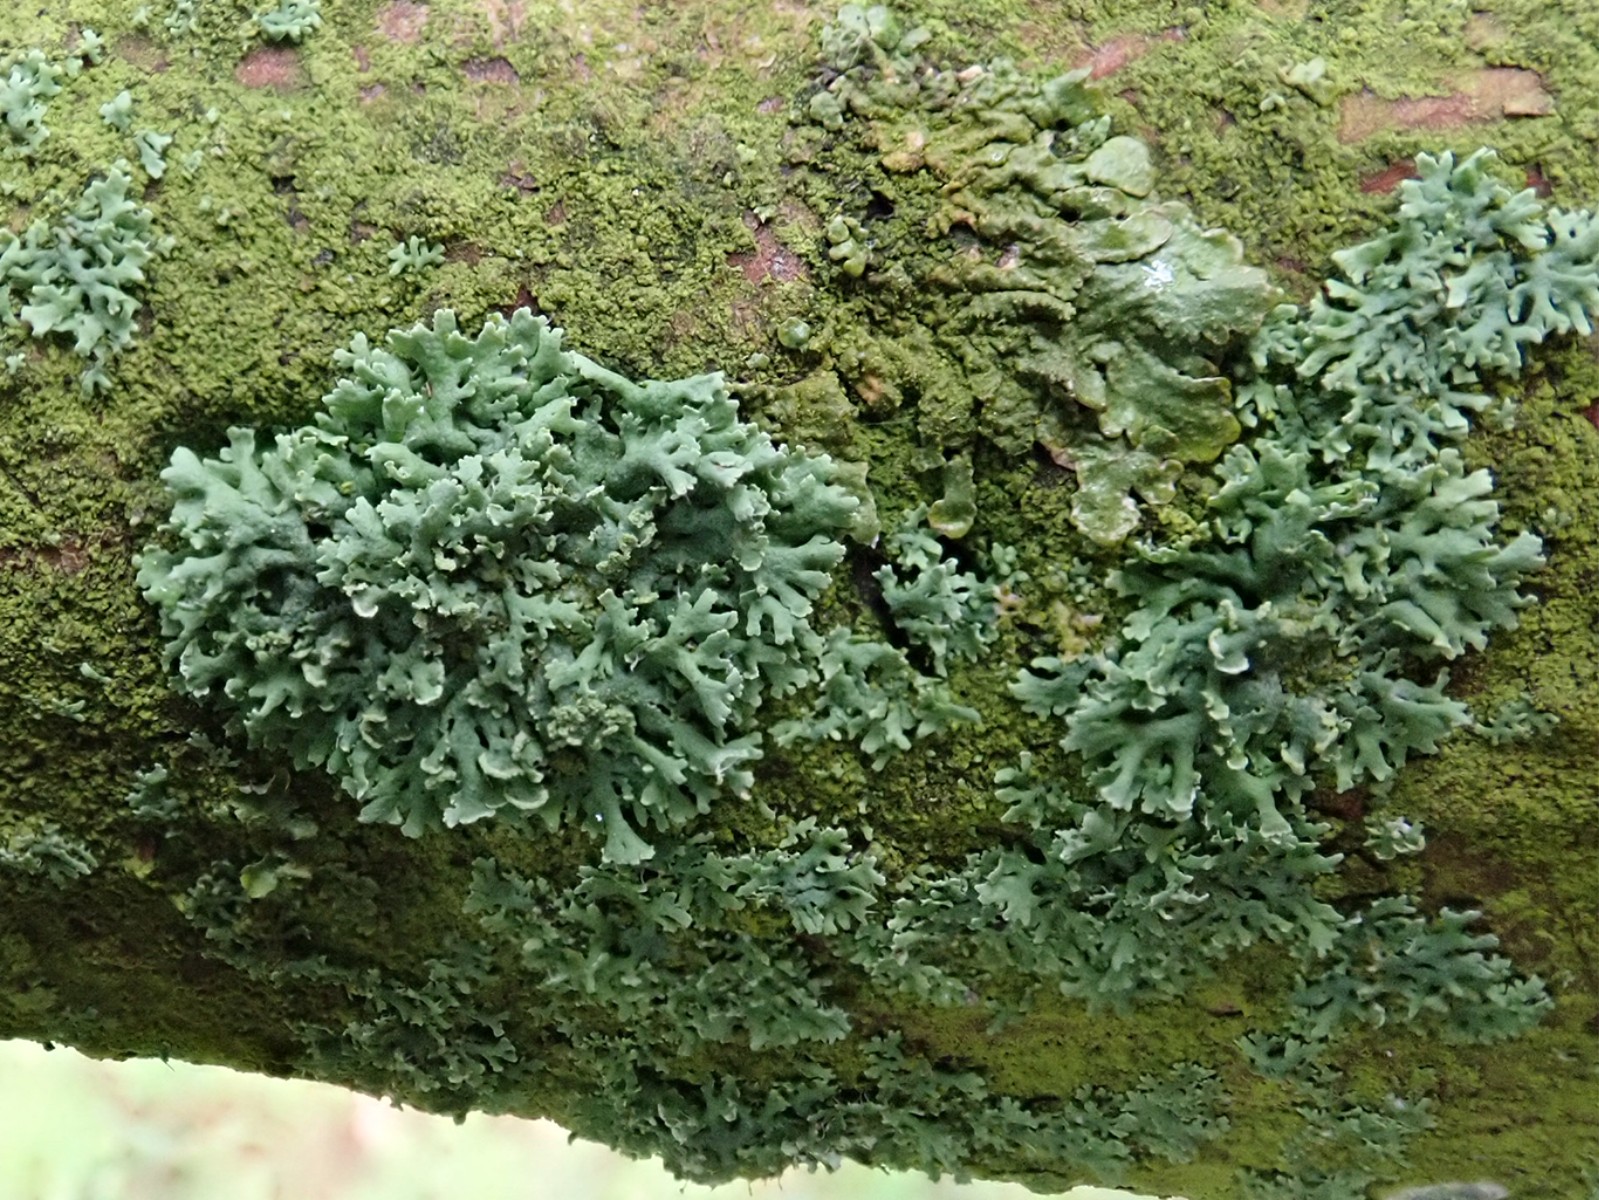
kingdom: Fungi
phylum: Ascomycota
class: Lecanoromycetes
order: Caliciales
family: Physciaceae
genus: Physcia
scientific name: Physcia tenella
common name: spæd rosetlav
